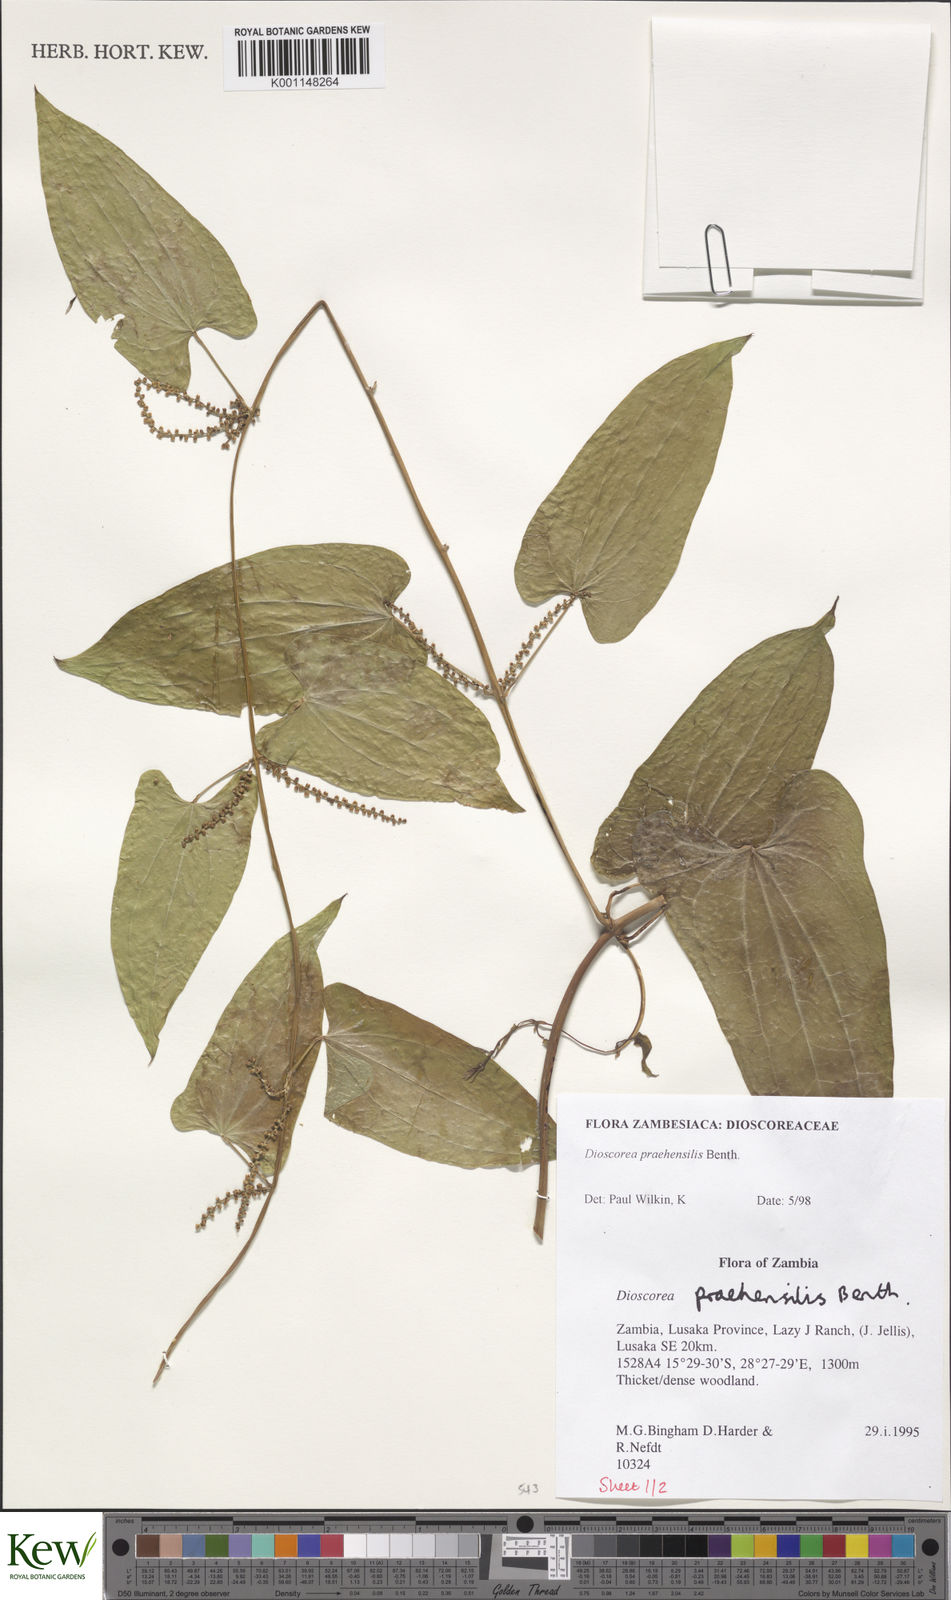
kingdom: Plantae
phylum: Tracheophyta
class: Liliopsida
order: Dioscoreales
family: Dioscoreaceae
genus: Dioscorea
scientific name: Dioscorea praehensilis
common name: Bush yam
